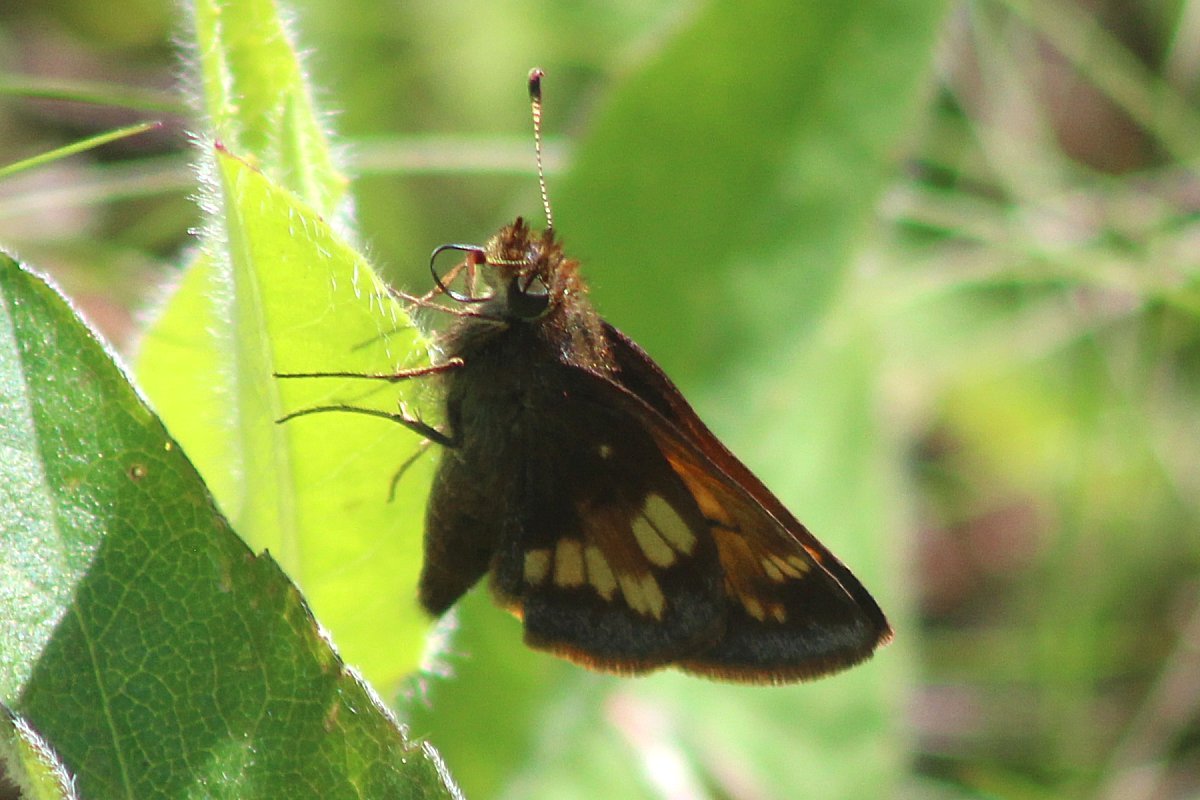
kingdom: Animalia
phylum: Arthropoda
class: Insecta
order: Lepidoptera
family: Hesperiidae
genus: Lon
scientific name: Lon hobomok
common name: Hobomok Skipper
